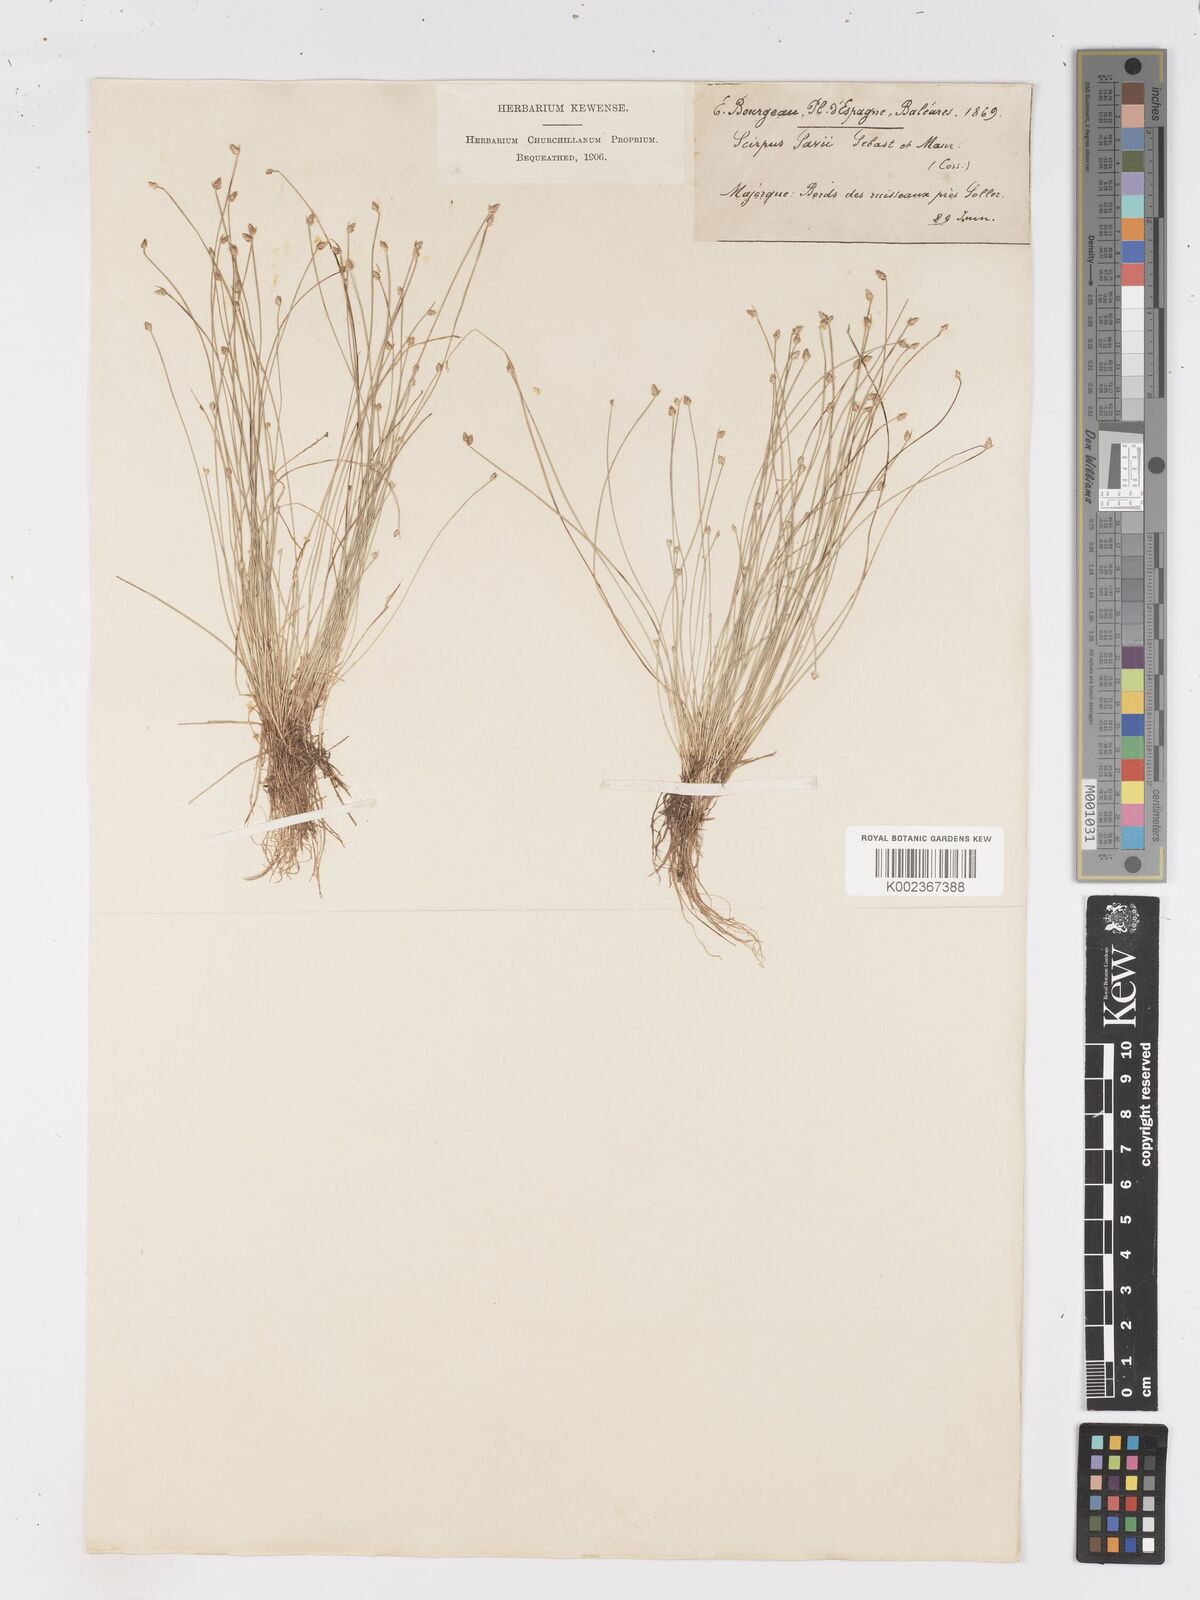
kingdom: Plantae
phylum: Tracheophyta
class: Liliopsida
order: Poales
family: Cyperaceae
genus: Isolepis
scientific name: Isolepis cernua
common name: Slender club-rush
